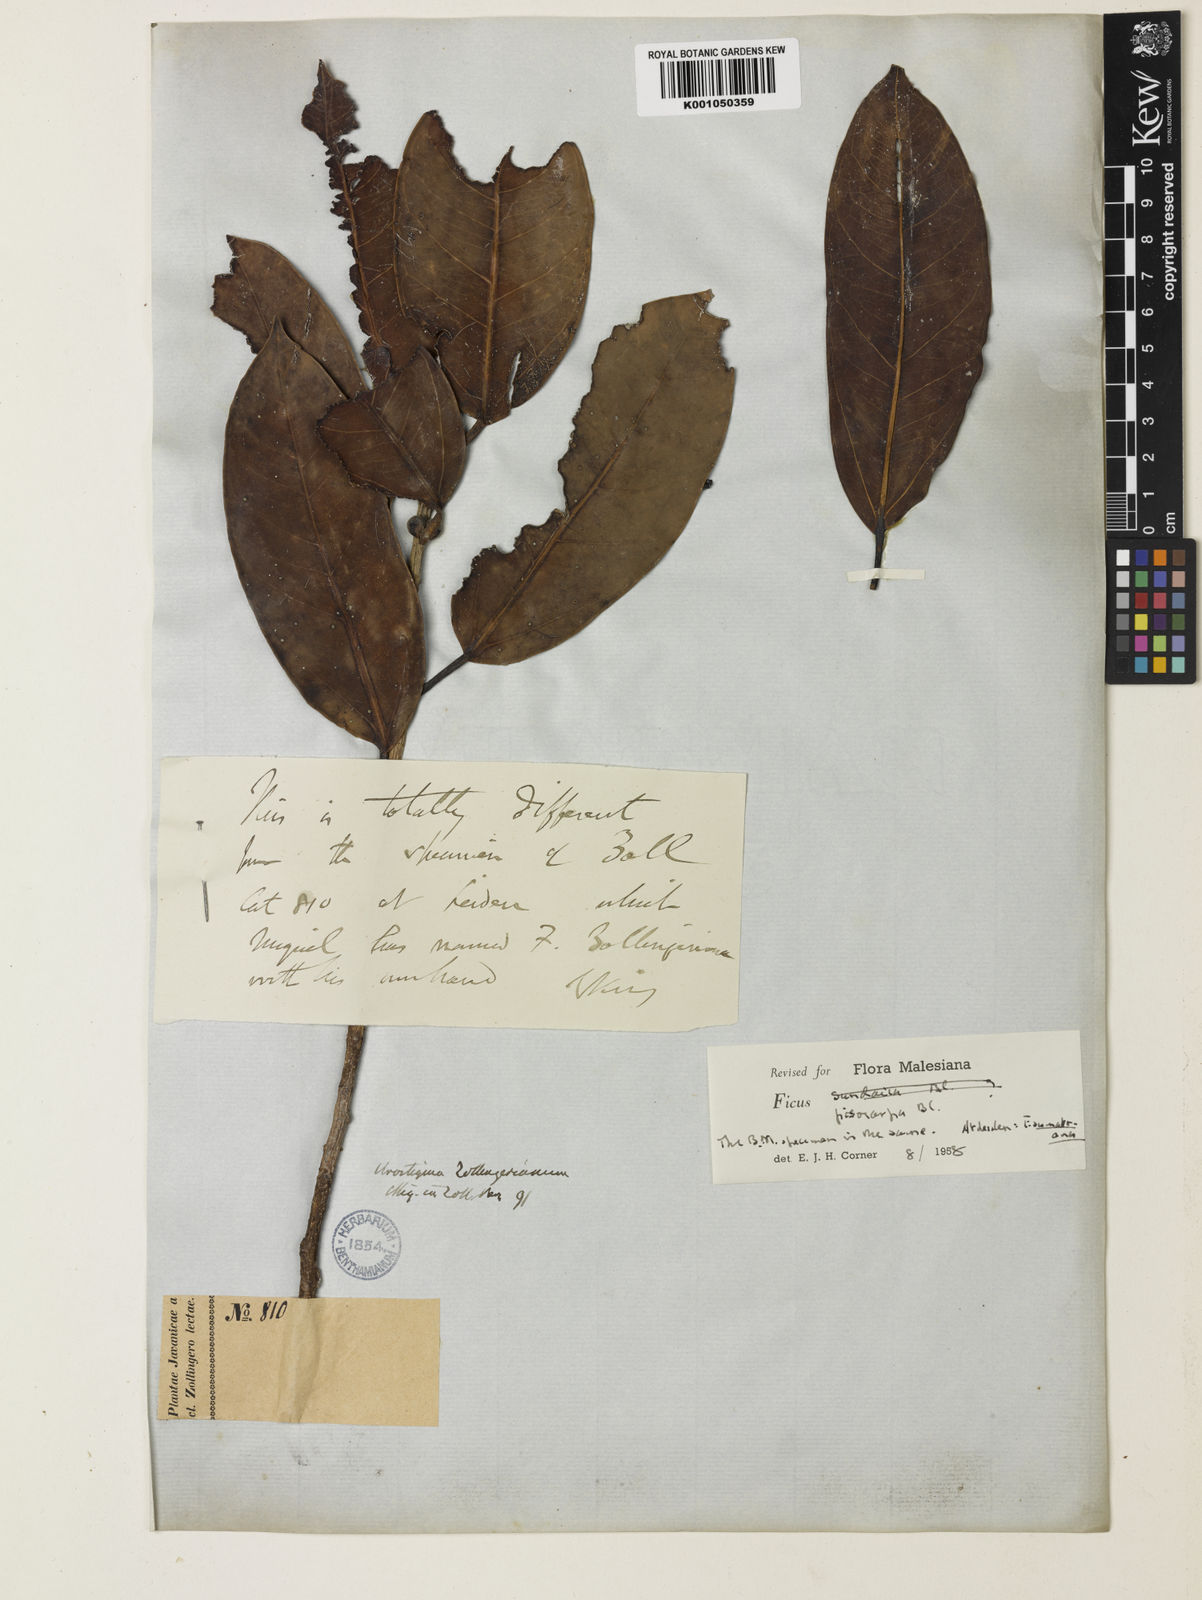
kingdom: Plantae
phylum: Tracheophyta
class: Magnoliopsida
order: Rosales
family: Moraceae
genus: Ficus
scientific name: Ficus pisocarpa
